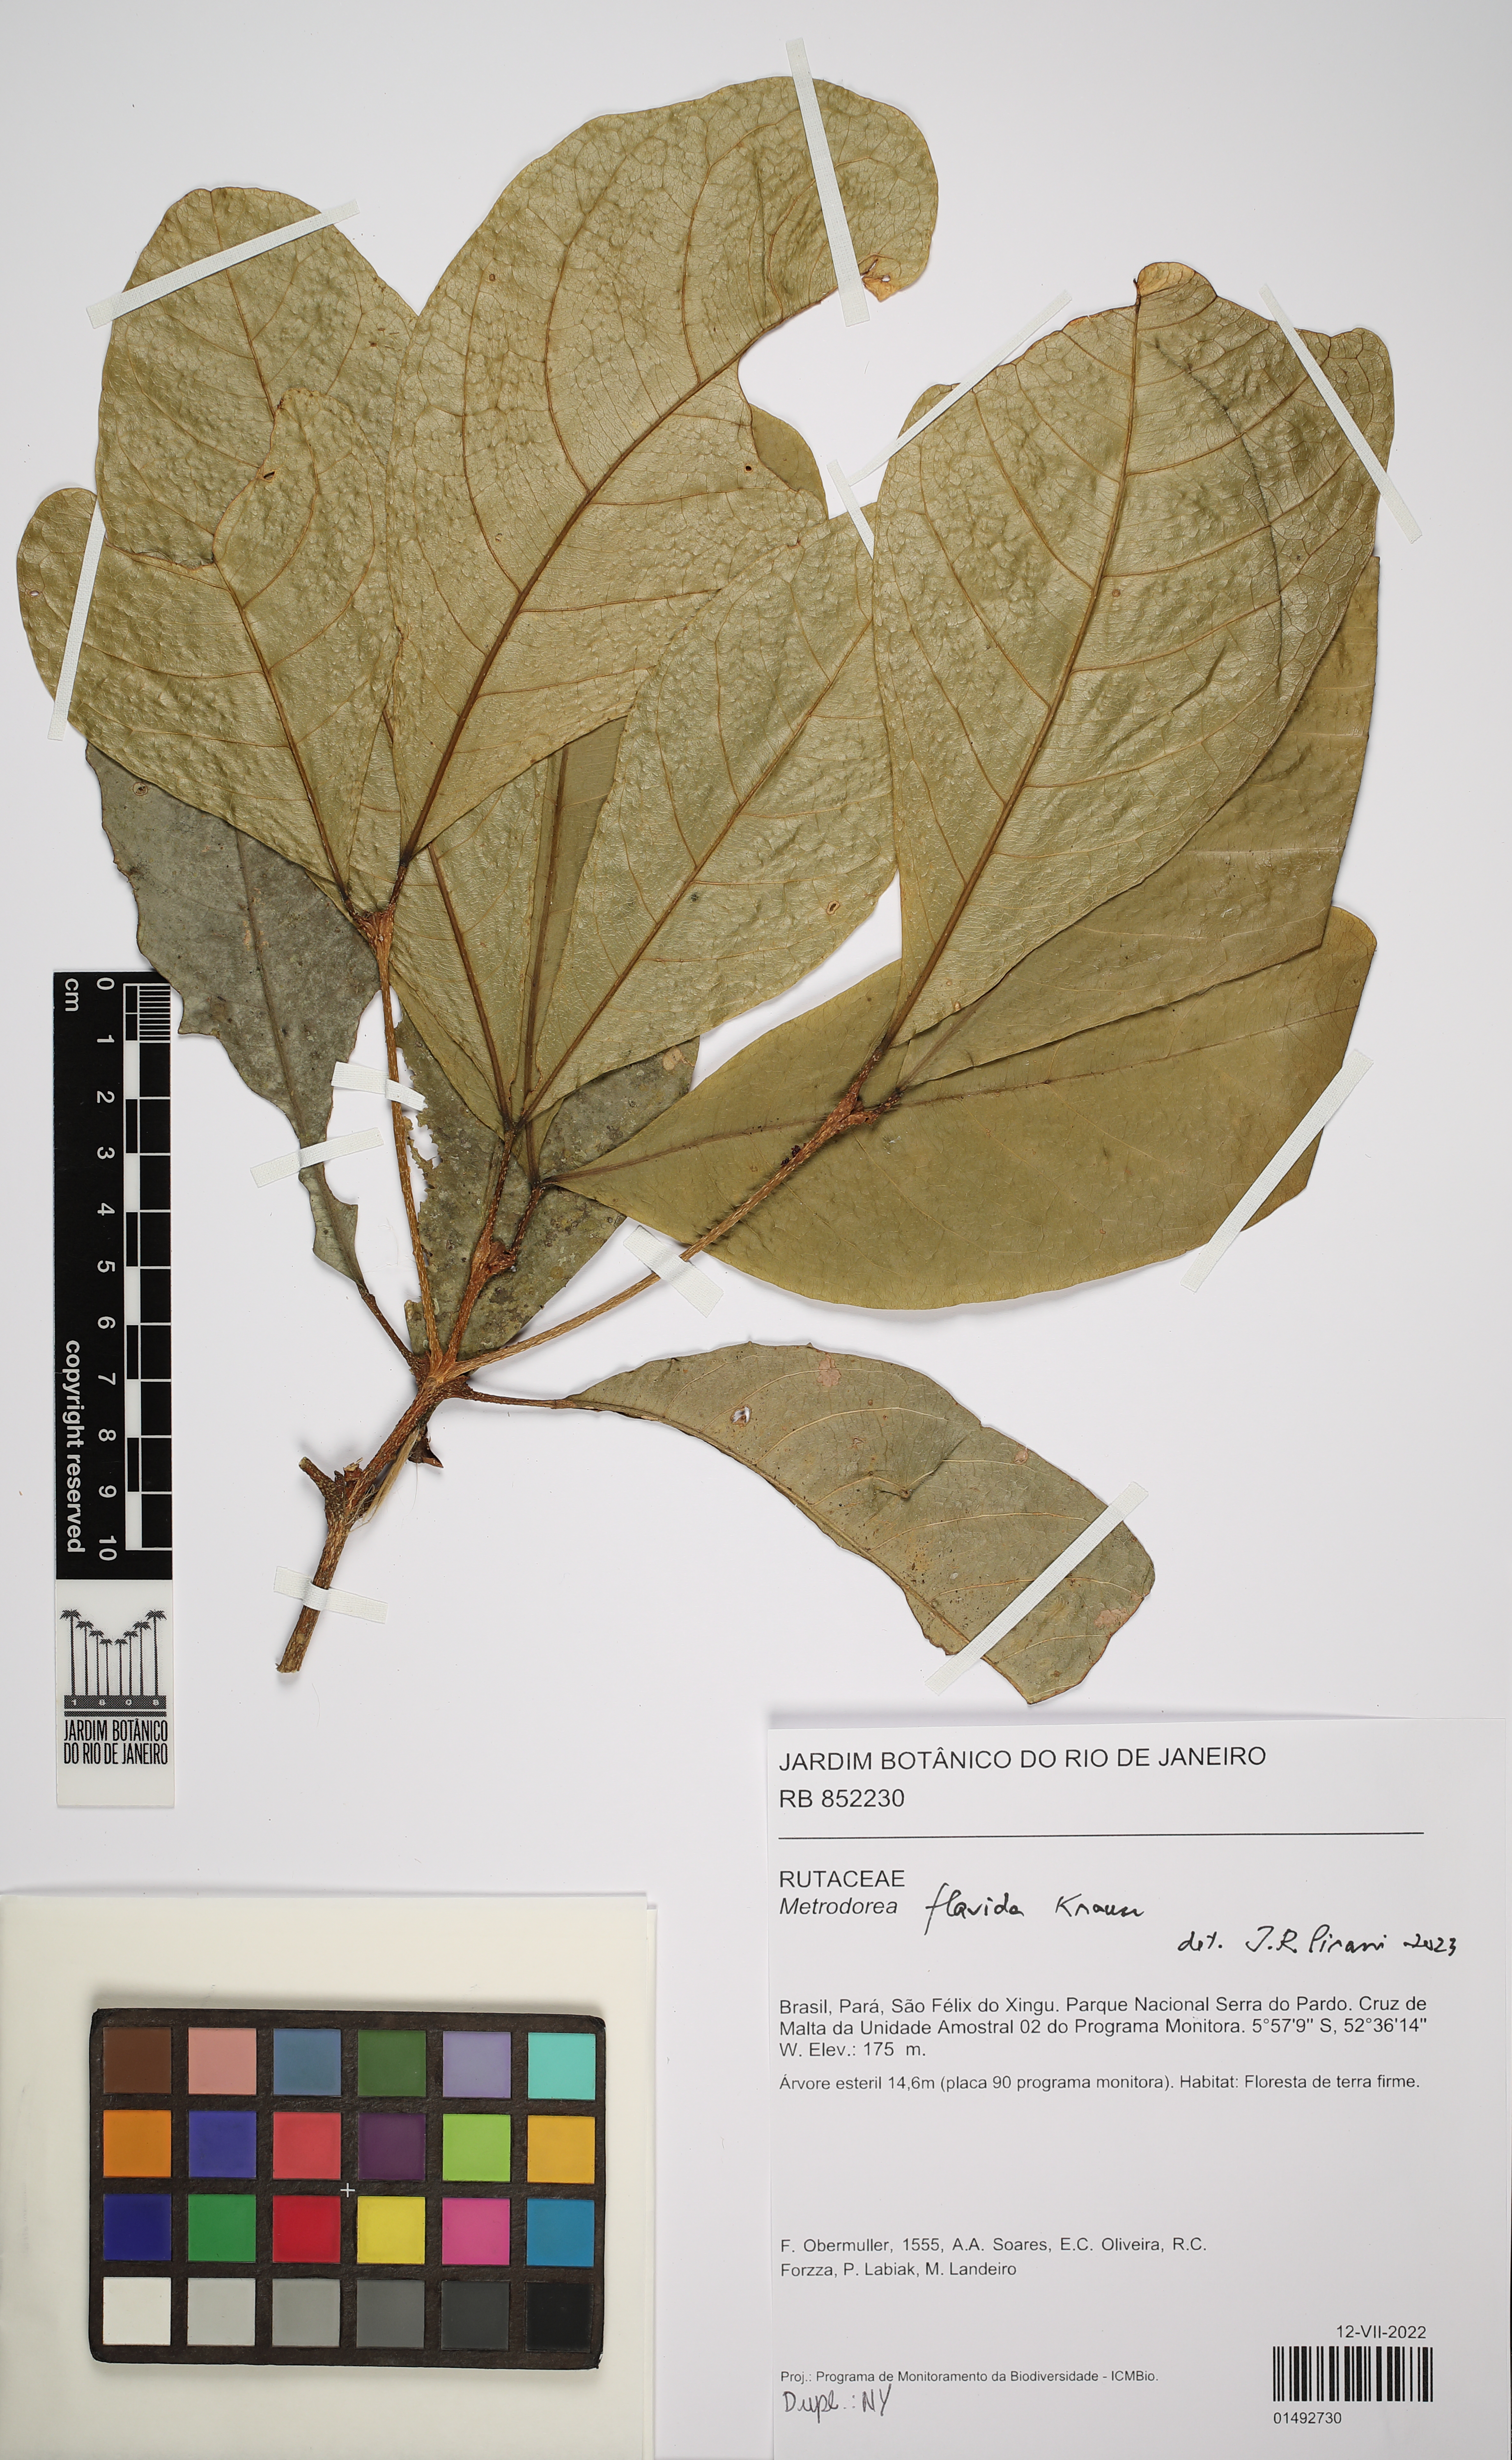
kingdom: Plantae
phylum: Tracheophyta
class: Magnoliopsida
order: Sapindales
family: Rutaceae
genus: Metrodorea
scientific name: Metrodorea flavida
